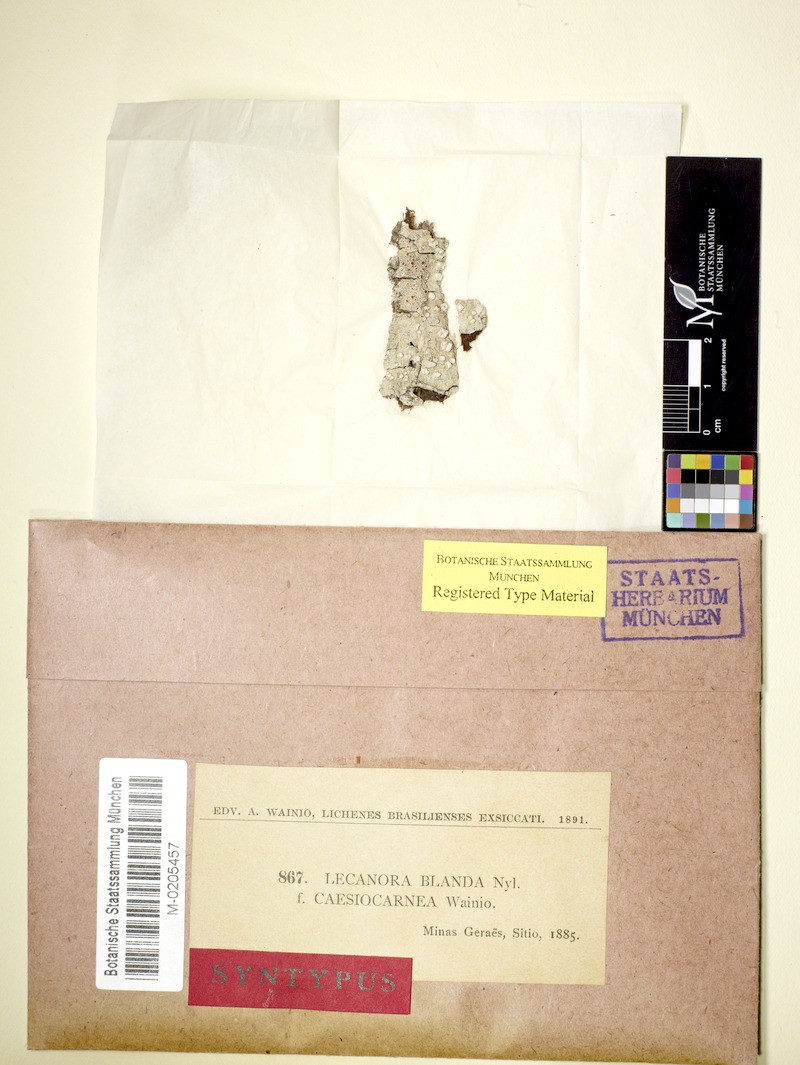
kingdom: Fungi
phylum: Ascomycota
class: Lecanoromycetes
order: Lecanorales
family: Lecanoraceae
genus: Lecanora
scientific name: Lecanora farinacea
